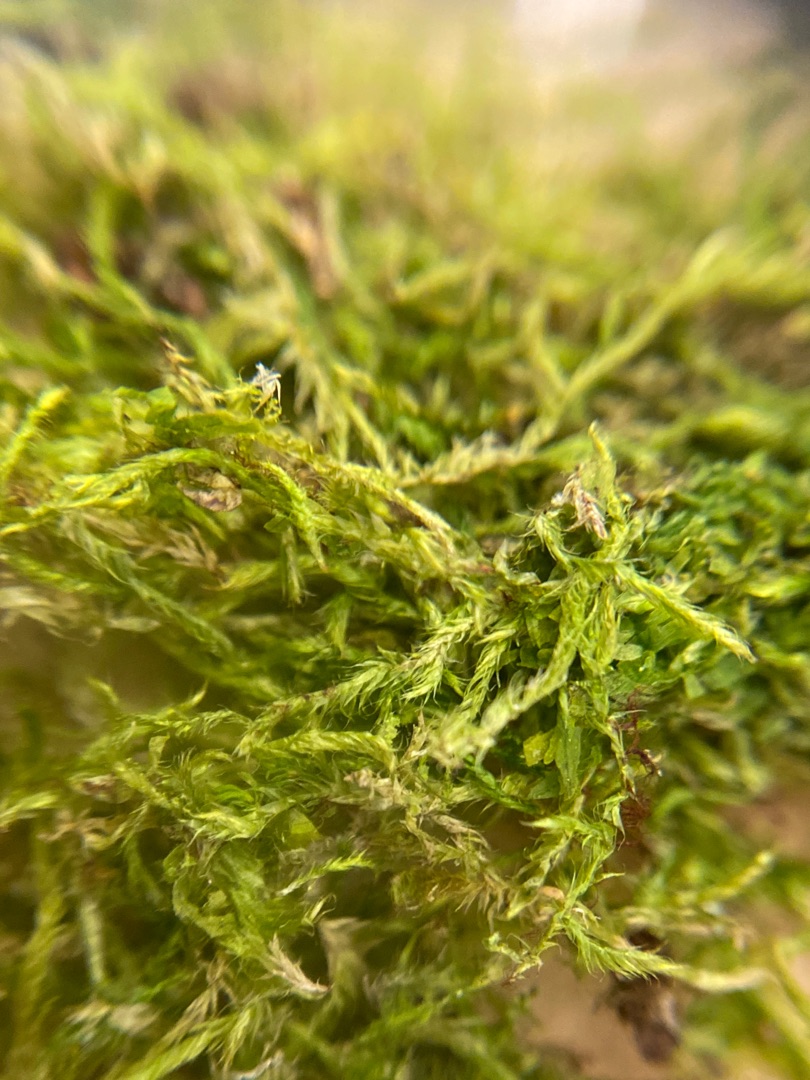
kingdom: Plantae
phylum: Bryophyta
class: Bryopsida
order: Hypnales
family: Hypnaceae
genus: Hypnum
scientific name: Hypnum
